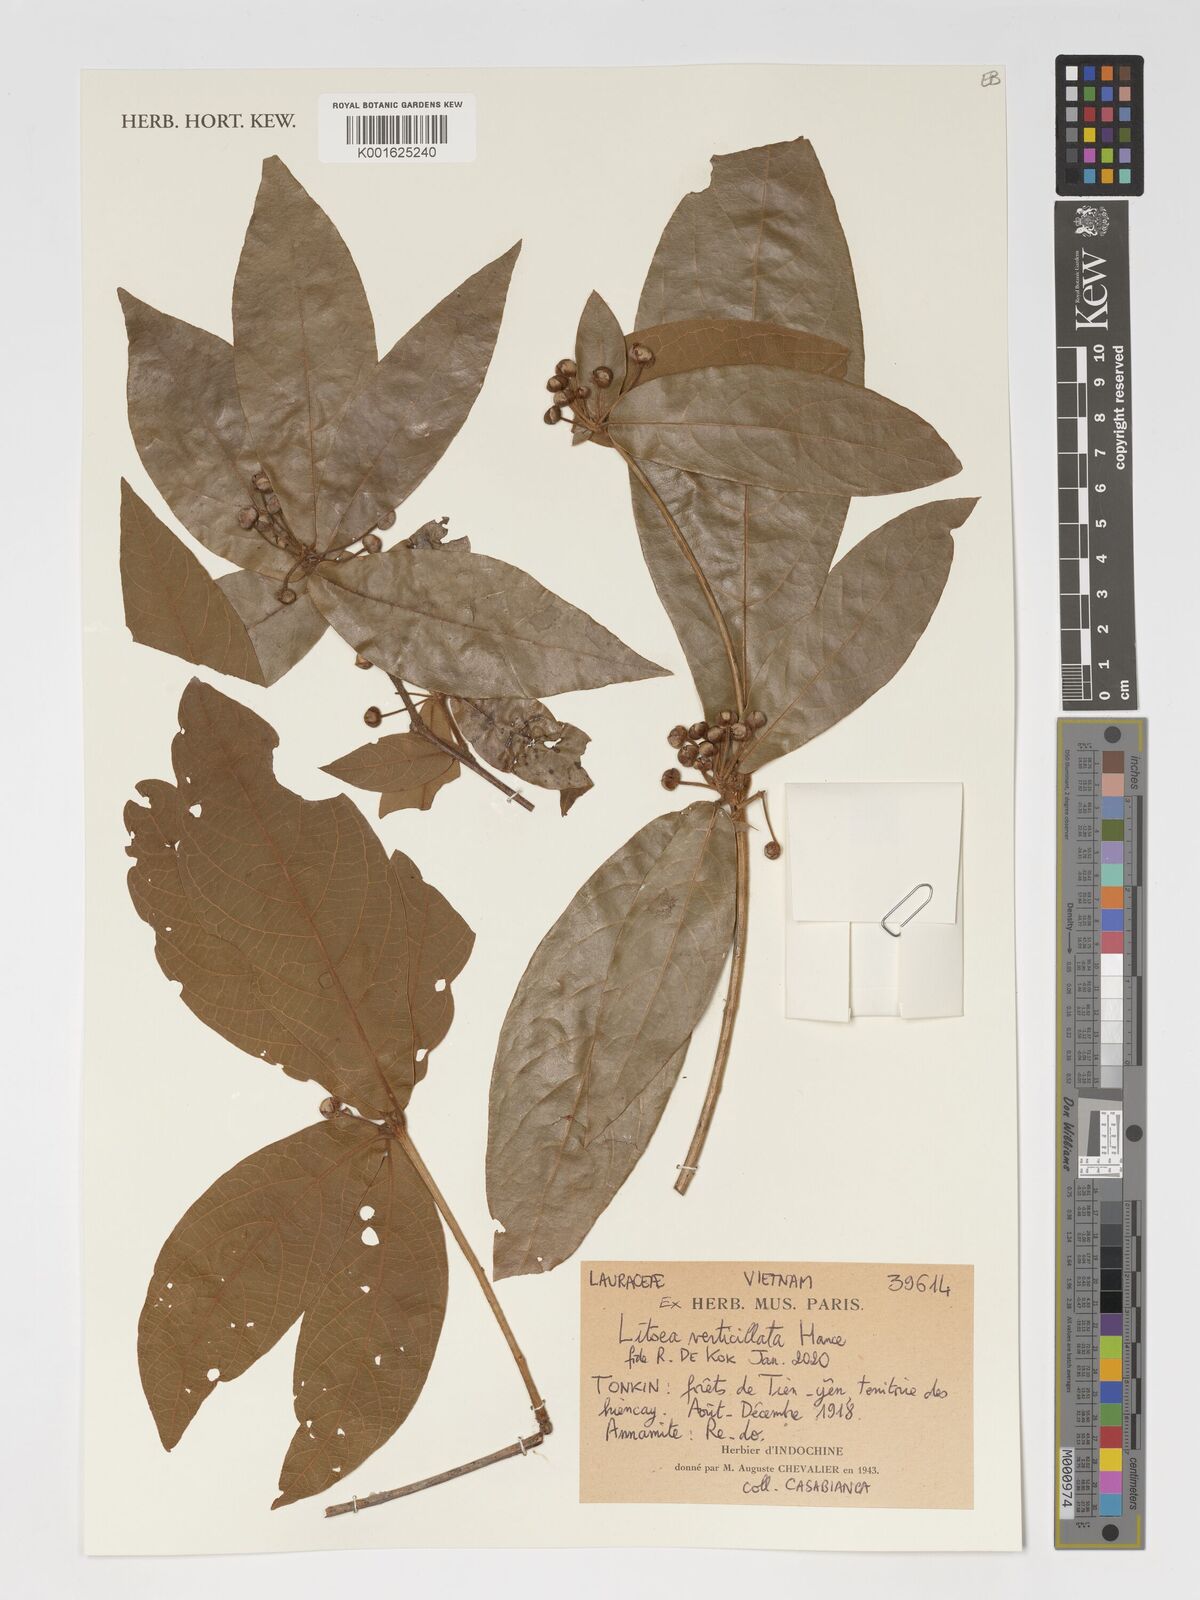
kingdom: Plantae
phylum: Tracheophyta
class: Magnoliopsida
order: Laurales
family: Lauraceae
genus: Litsea
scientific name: Litsea verticillata
